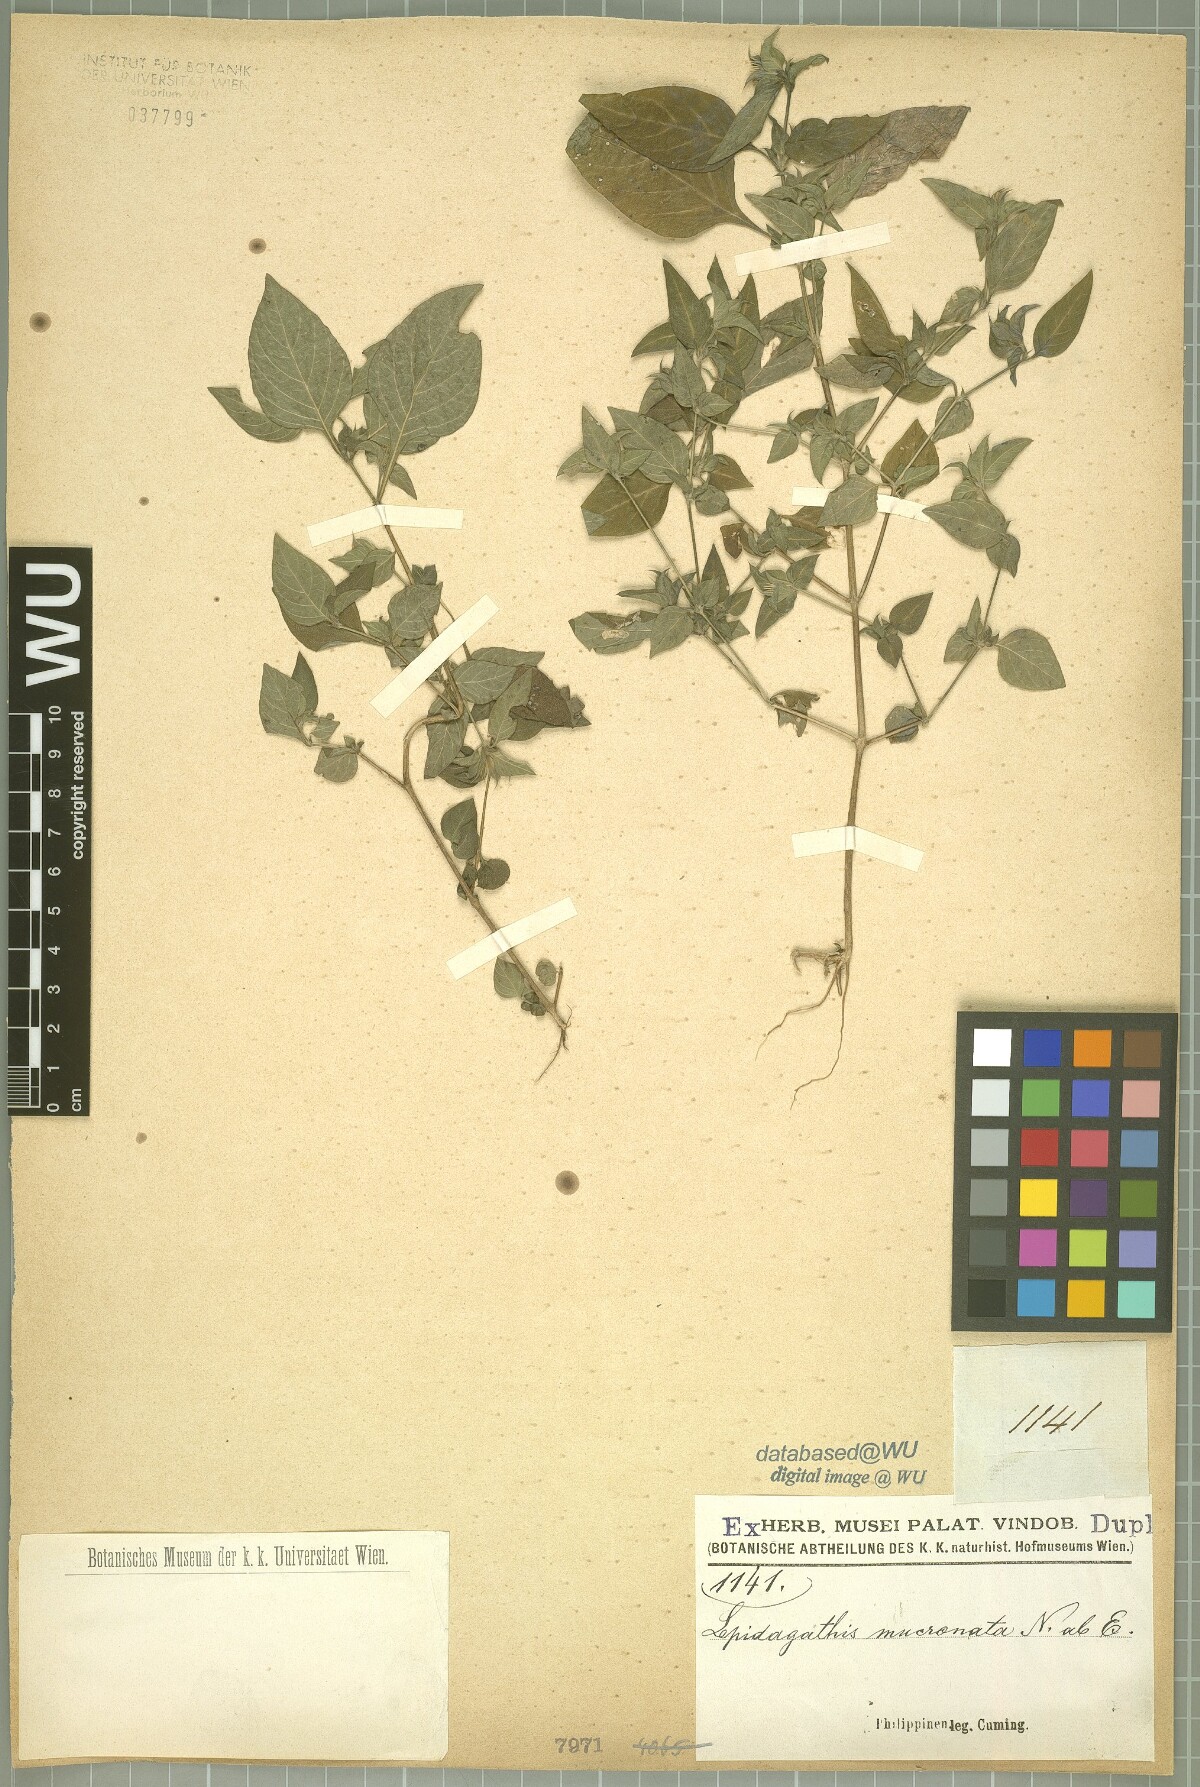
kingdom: Plantae
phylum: Tracheophyta
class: Magnoliopsida
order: Lamiales
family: Acanthaceae
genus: Lepidagathis
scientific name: Lepidagathis incurva
